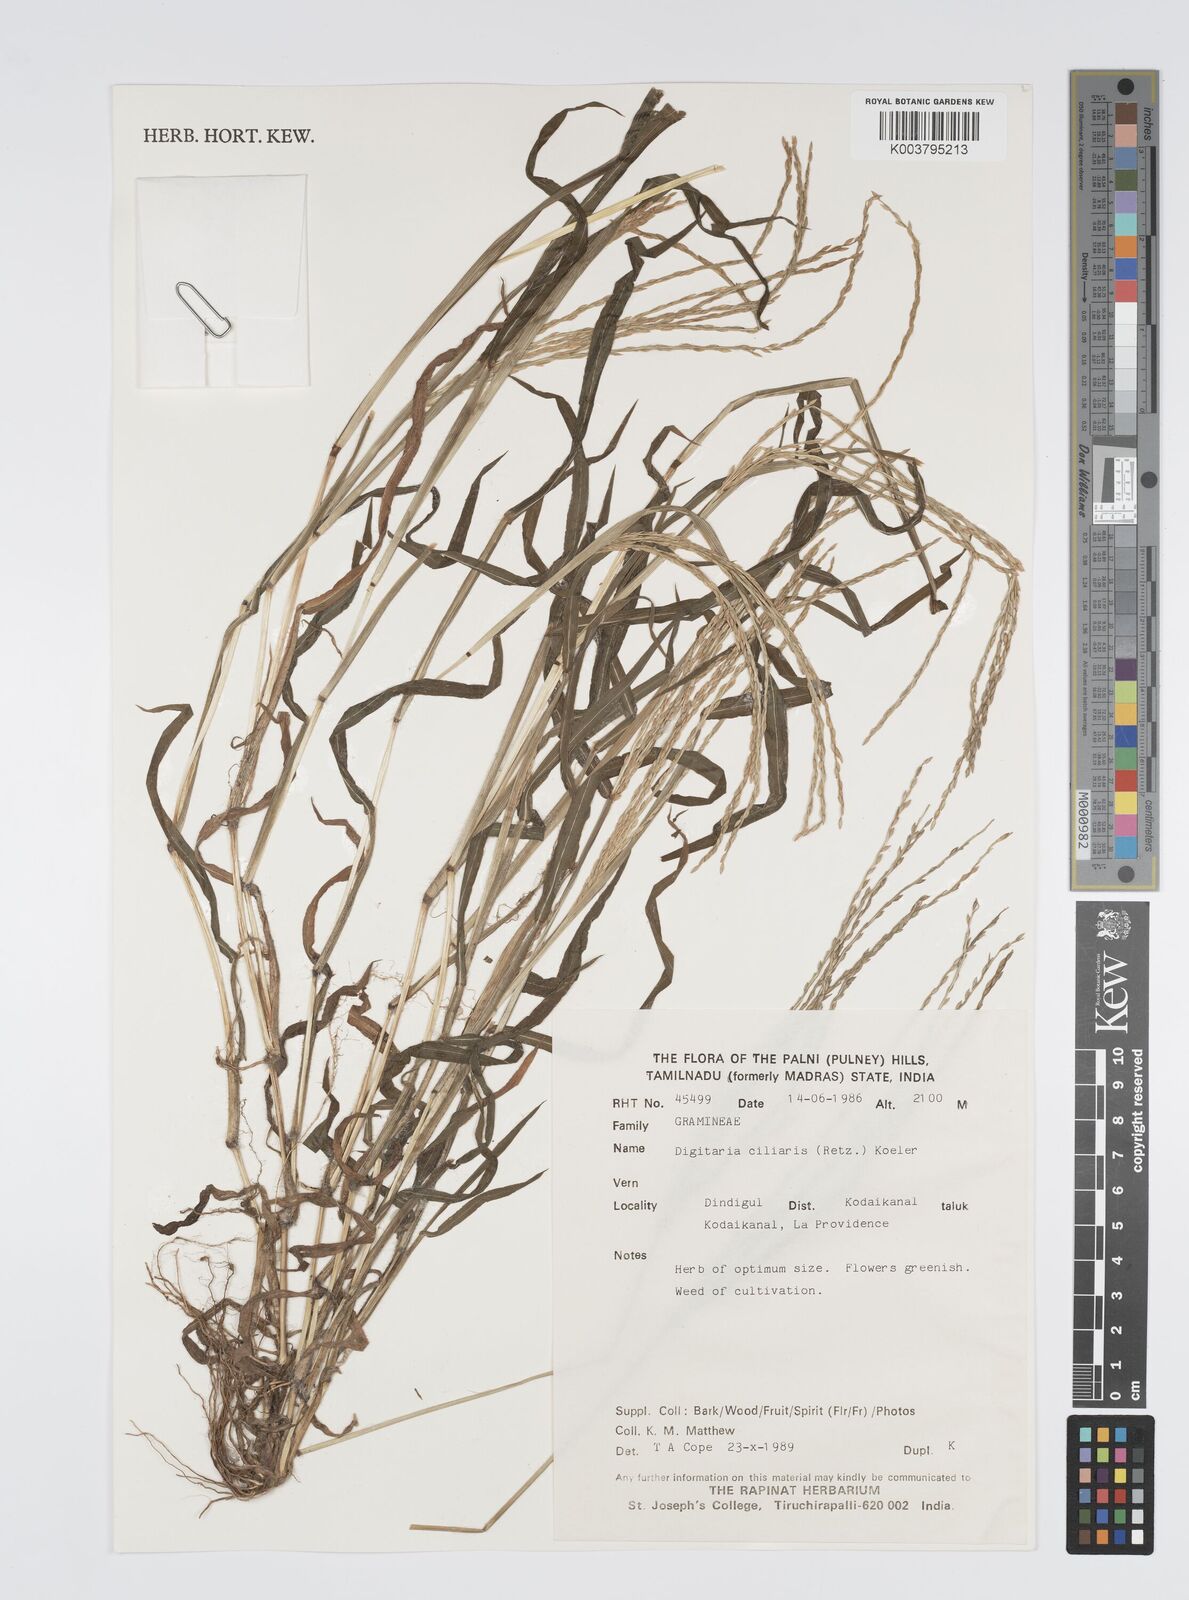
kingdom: Plantae
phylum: Tracheophyta
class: Liliopsida
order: Poales
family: Poaceae
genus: Digitaria
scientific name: Digitaria ciliaris
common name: Tropical finger-grass
